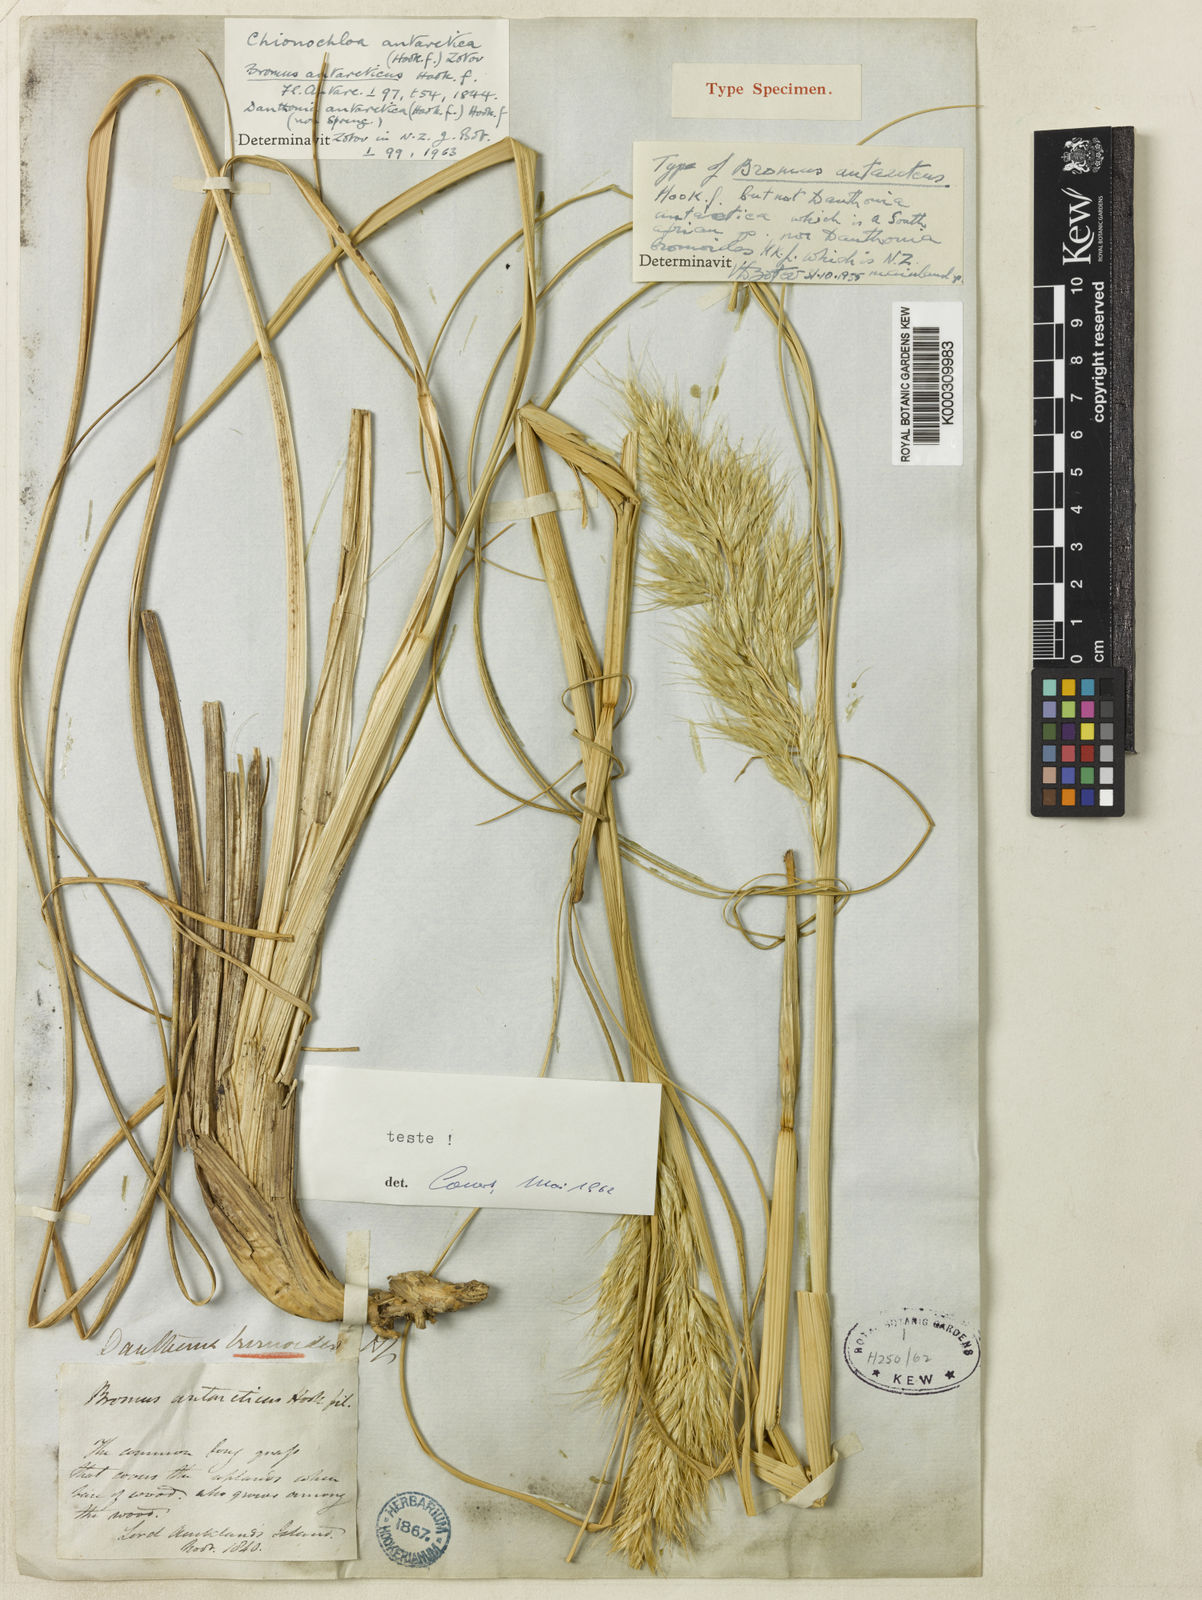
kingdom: Plantae
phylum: Tracheophyta
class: Liliopsida
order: Poales
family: Poaceae
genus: Chionochloa
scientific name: Chionochloa antarctica
